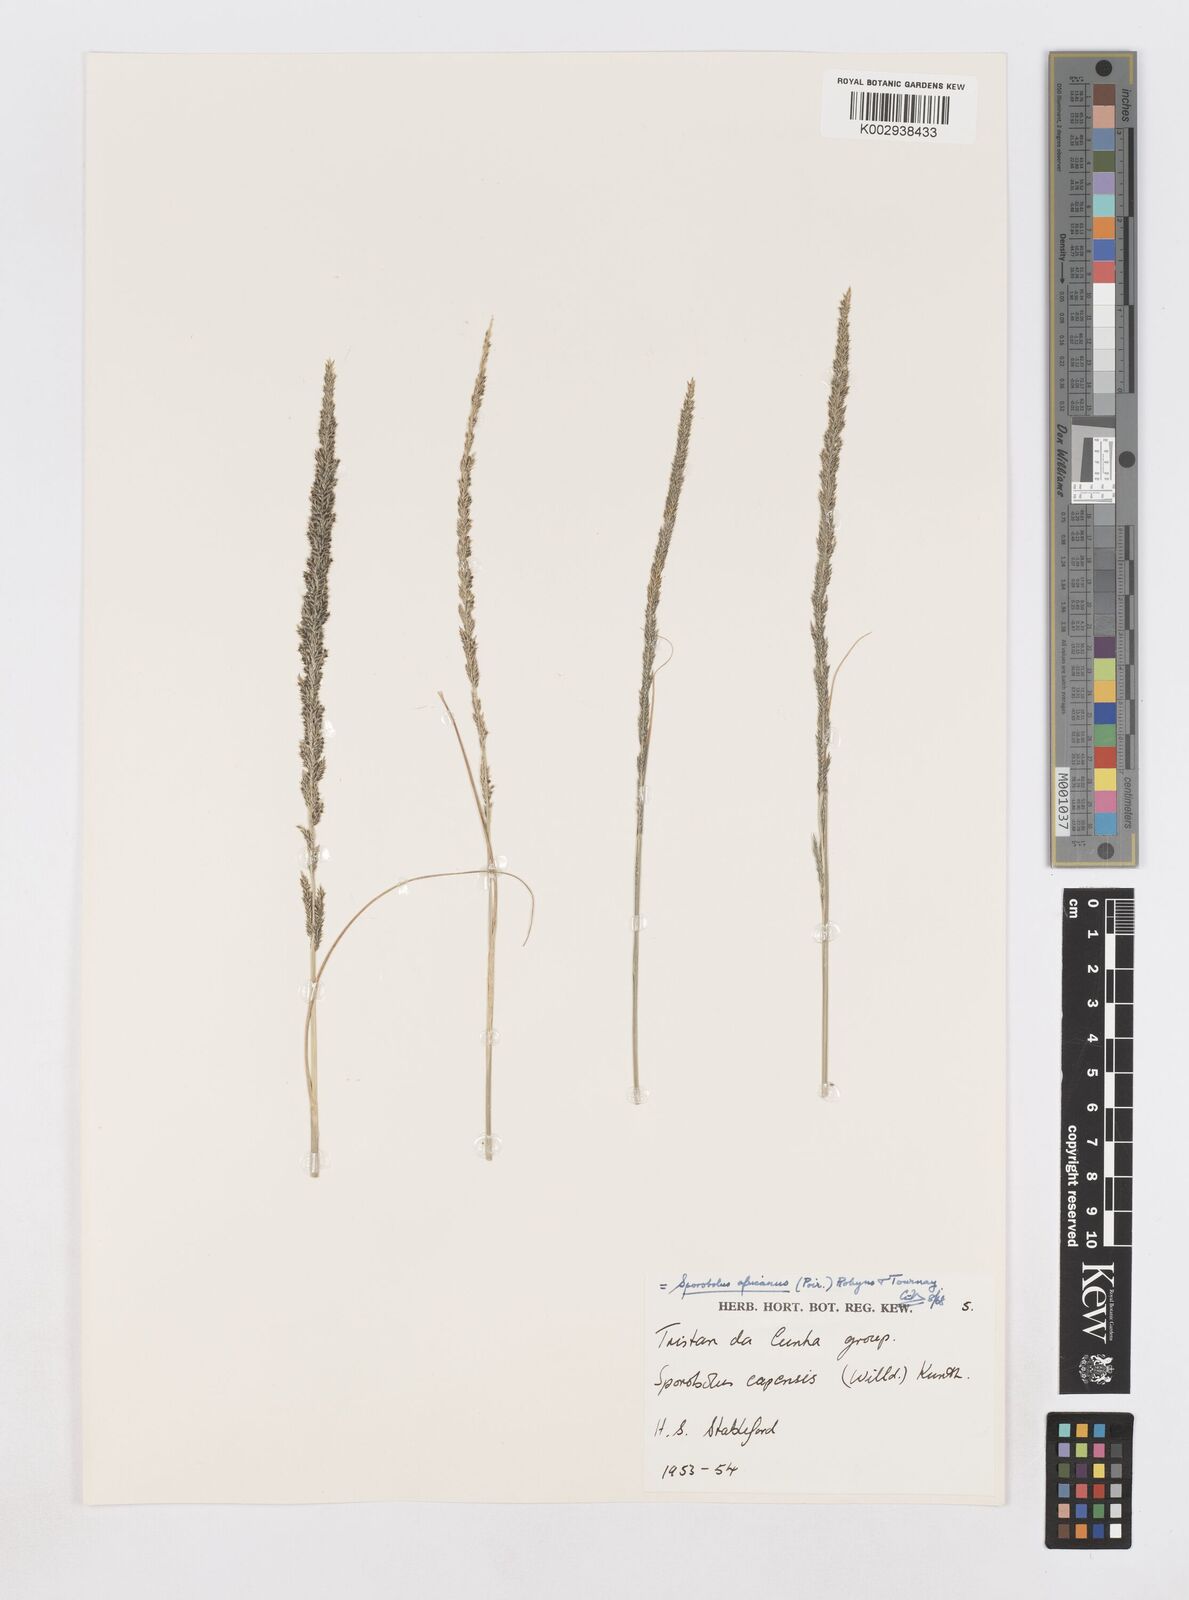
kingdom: Plantae
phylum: Tracheophyta
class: Liliopsida
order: Poales
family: Poaceae
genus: Sporobolus
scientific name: Sporobolus africanus
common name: African dropseed
